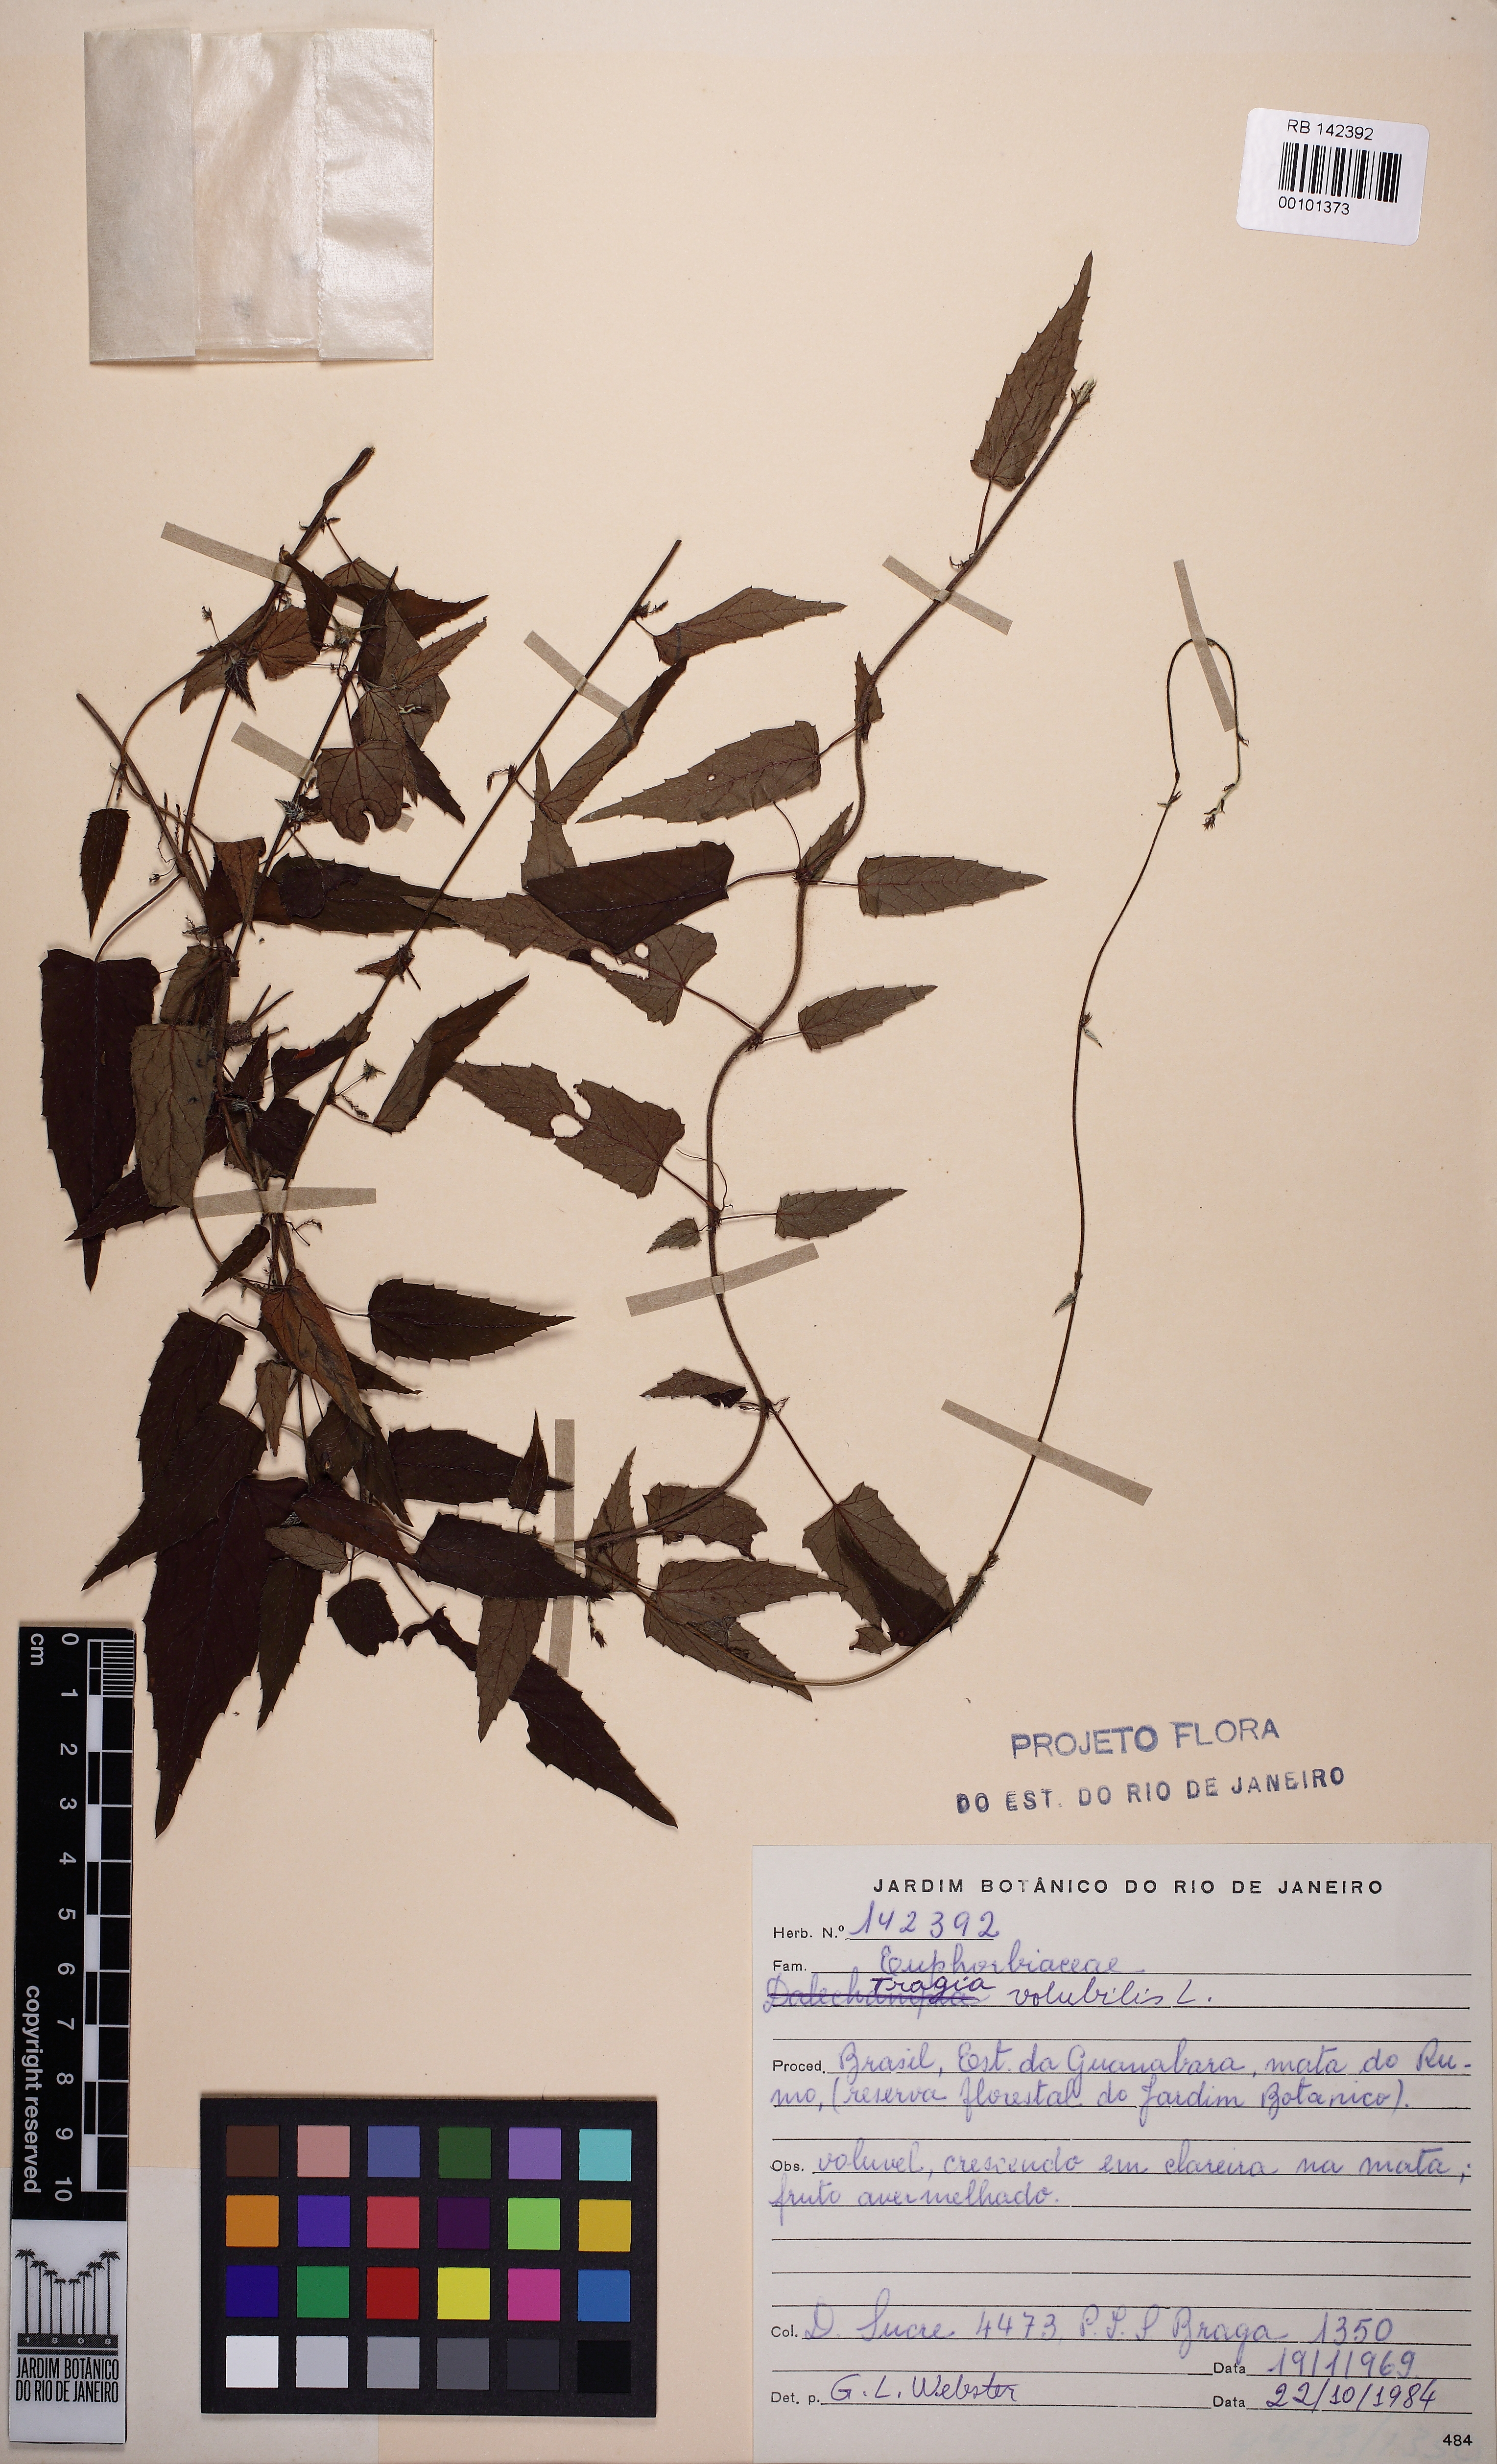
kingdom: Plantae
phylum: Tracheophyta
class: Magnoliopsida
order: Malpighiales
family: Euphorbiaceae
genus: Tragia
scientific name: Tragia volubilis
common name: Twining cow-itch
